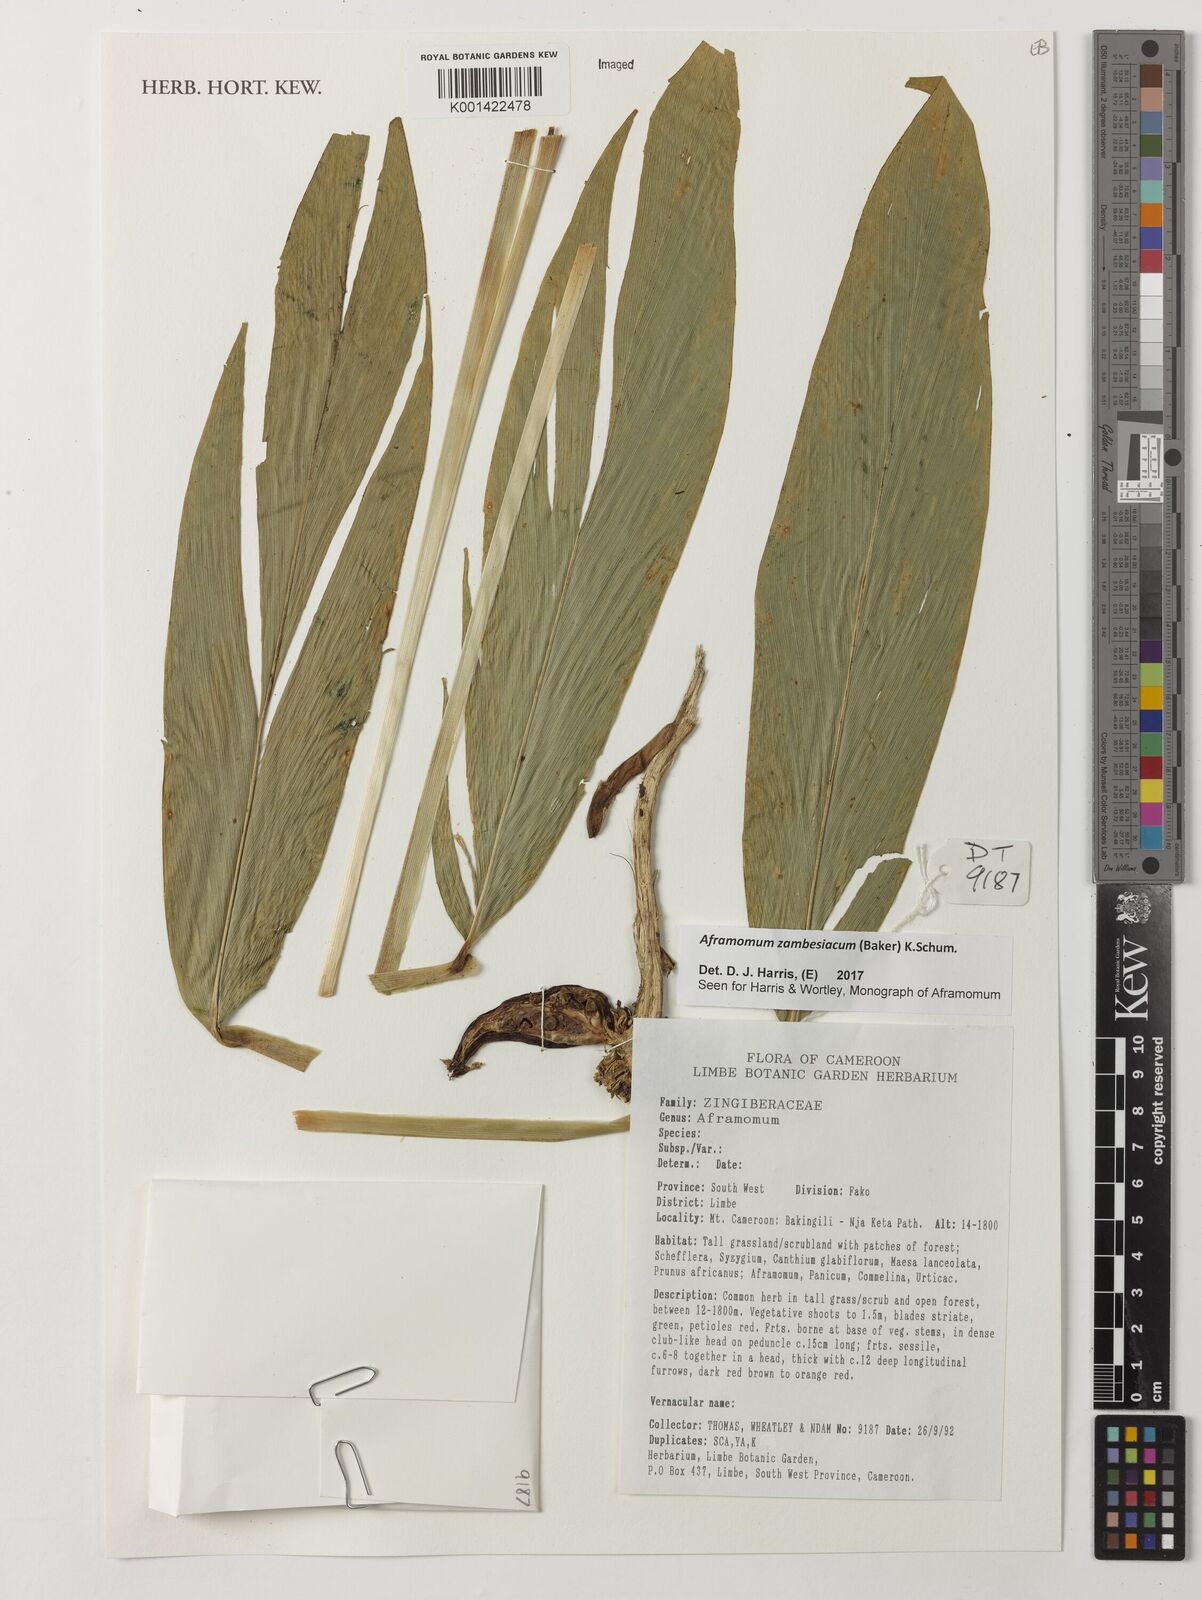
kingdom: Plantae
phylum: Tracheophyta
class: Liliopsida
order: Zingiberales
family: Zingiberaceae
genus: Aframomum
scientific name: Aframomum zambesiacum
